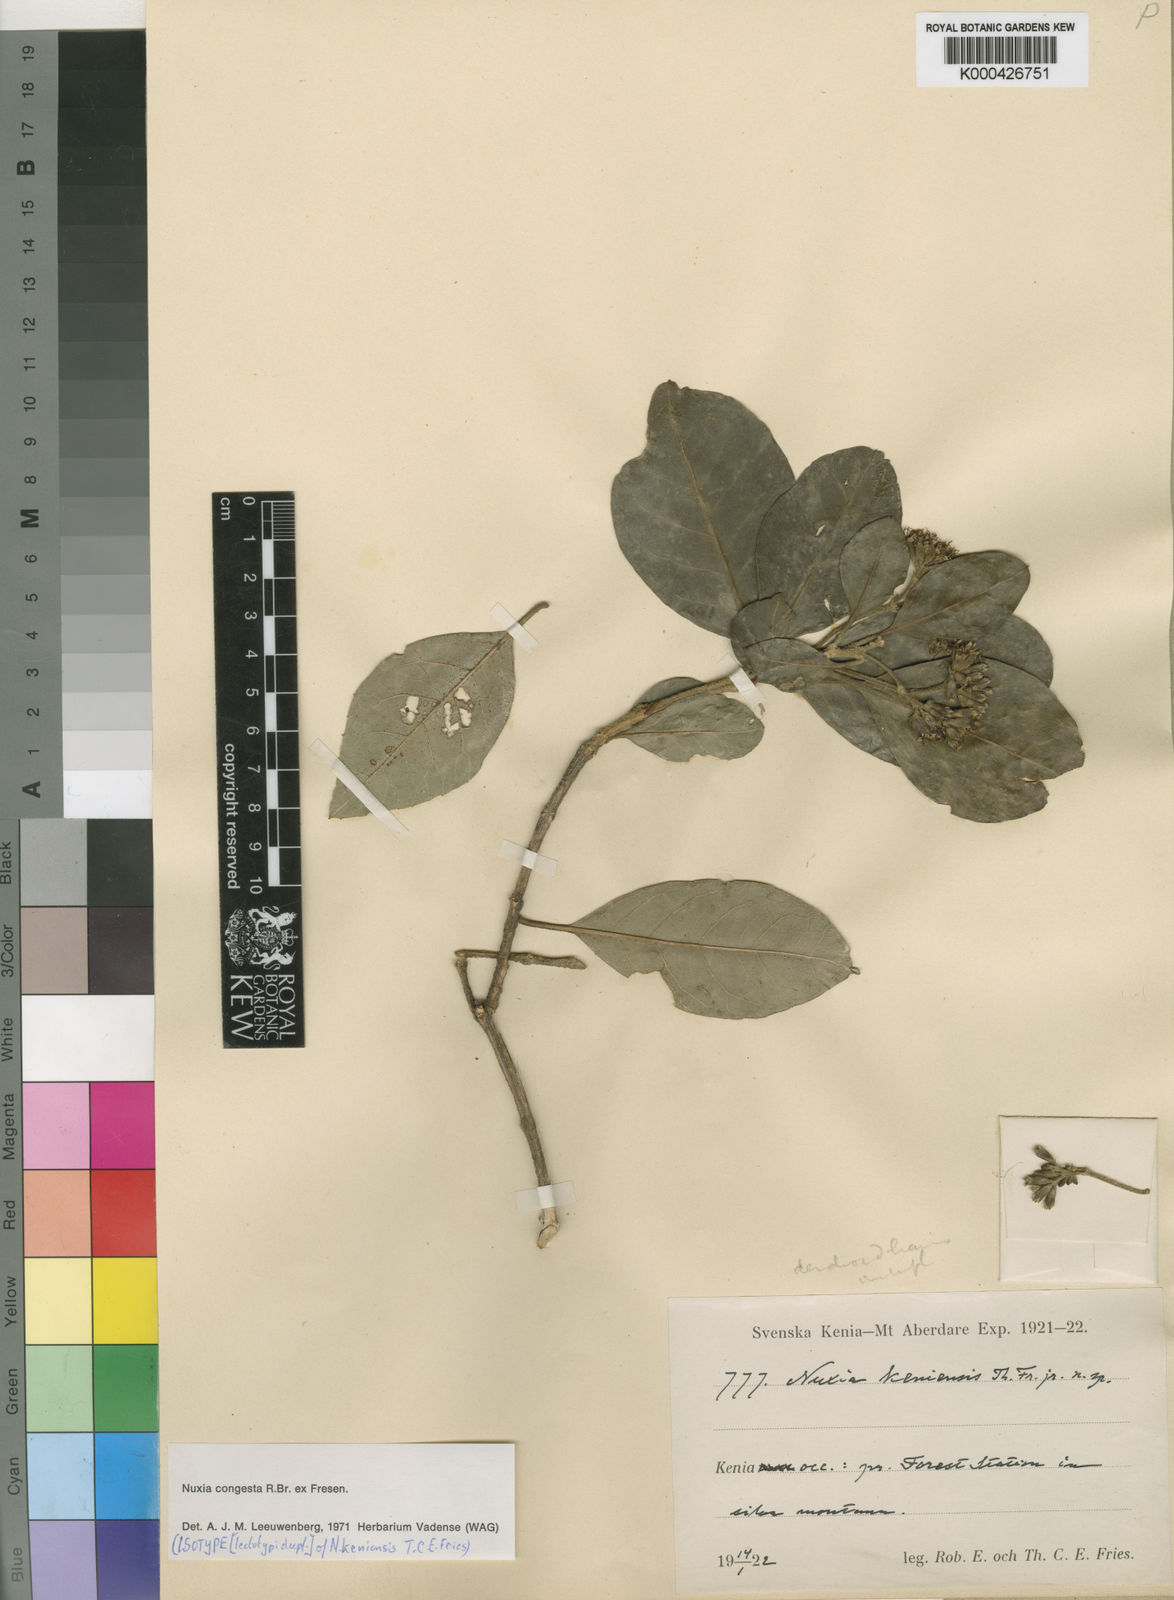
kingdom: Plantae
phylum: Tracheophyta
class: Magnoliopsida
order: Lamiales
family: Stilbaceae
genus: Nuxia
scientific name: Nuxia congesta
